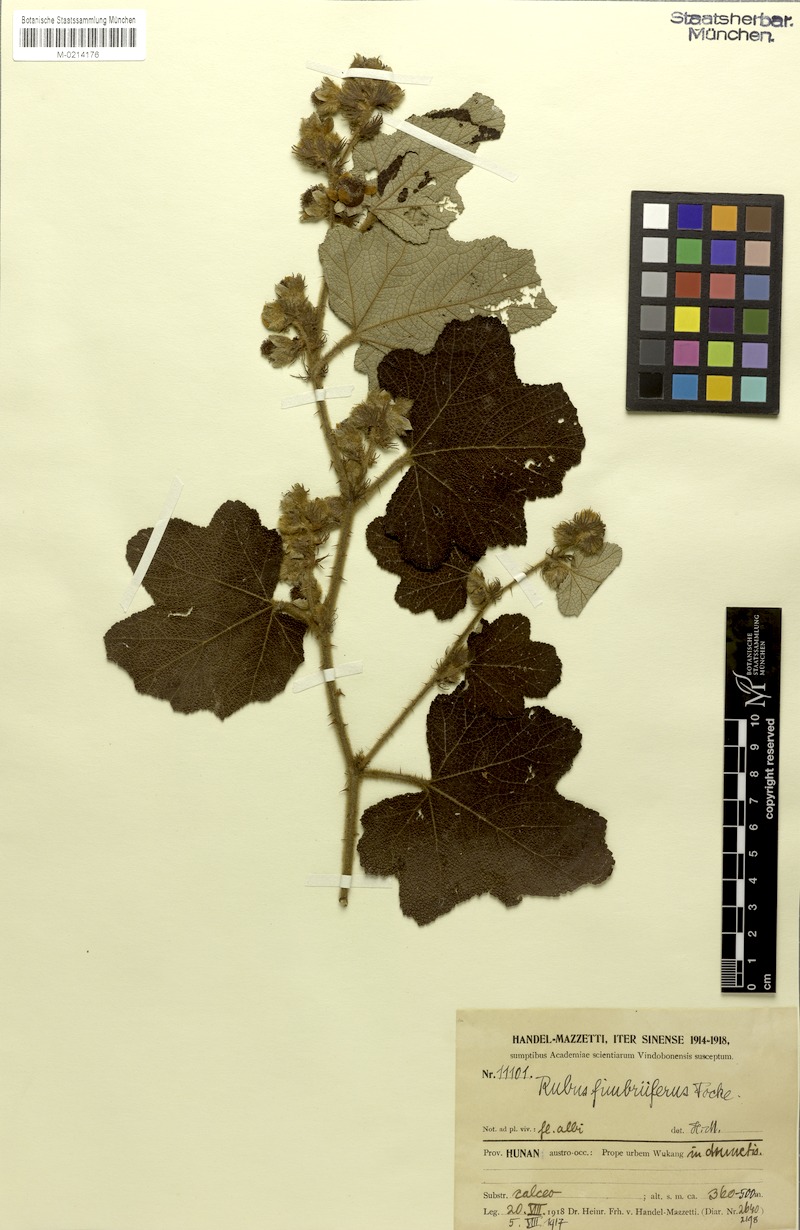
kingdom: Plantae
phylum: Tracheophyta
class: Magnoliopsida
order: Rosales
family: Rosaceae
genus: Rubus
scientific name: Rubus alceifolius
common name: Giant bramble
